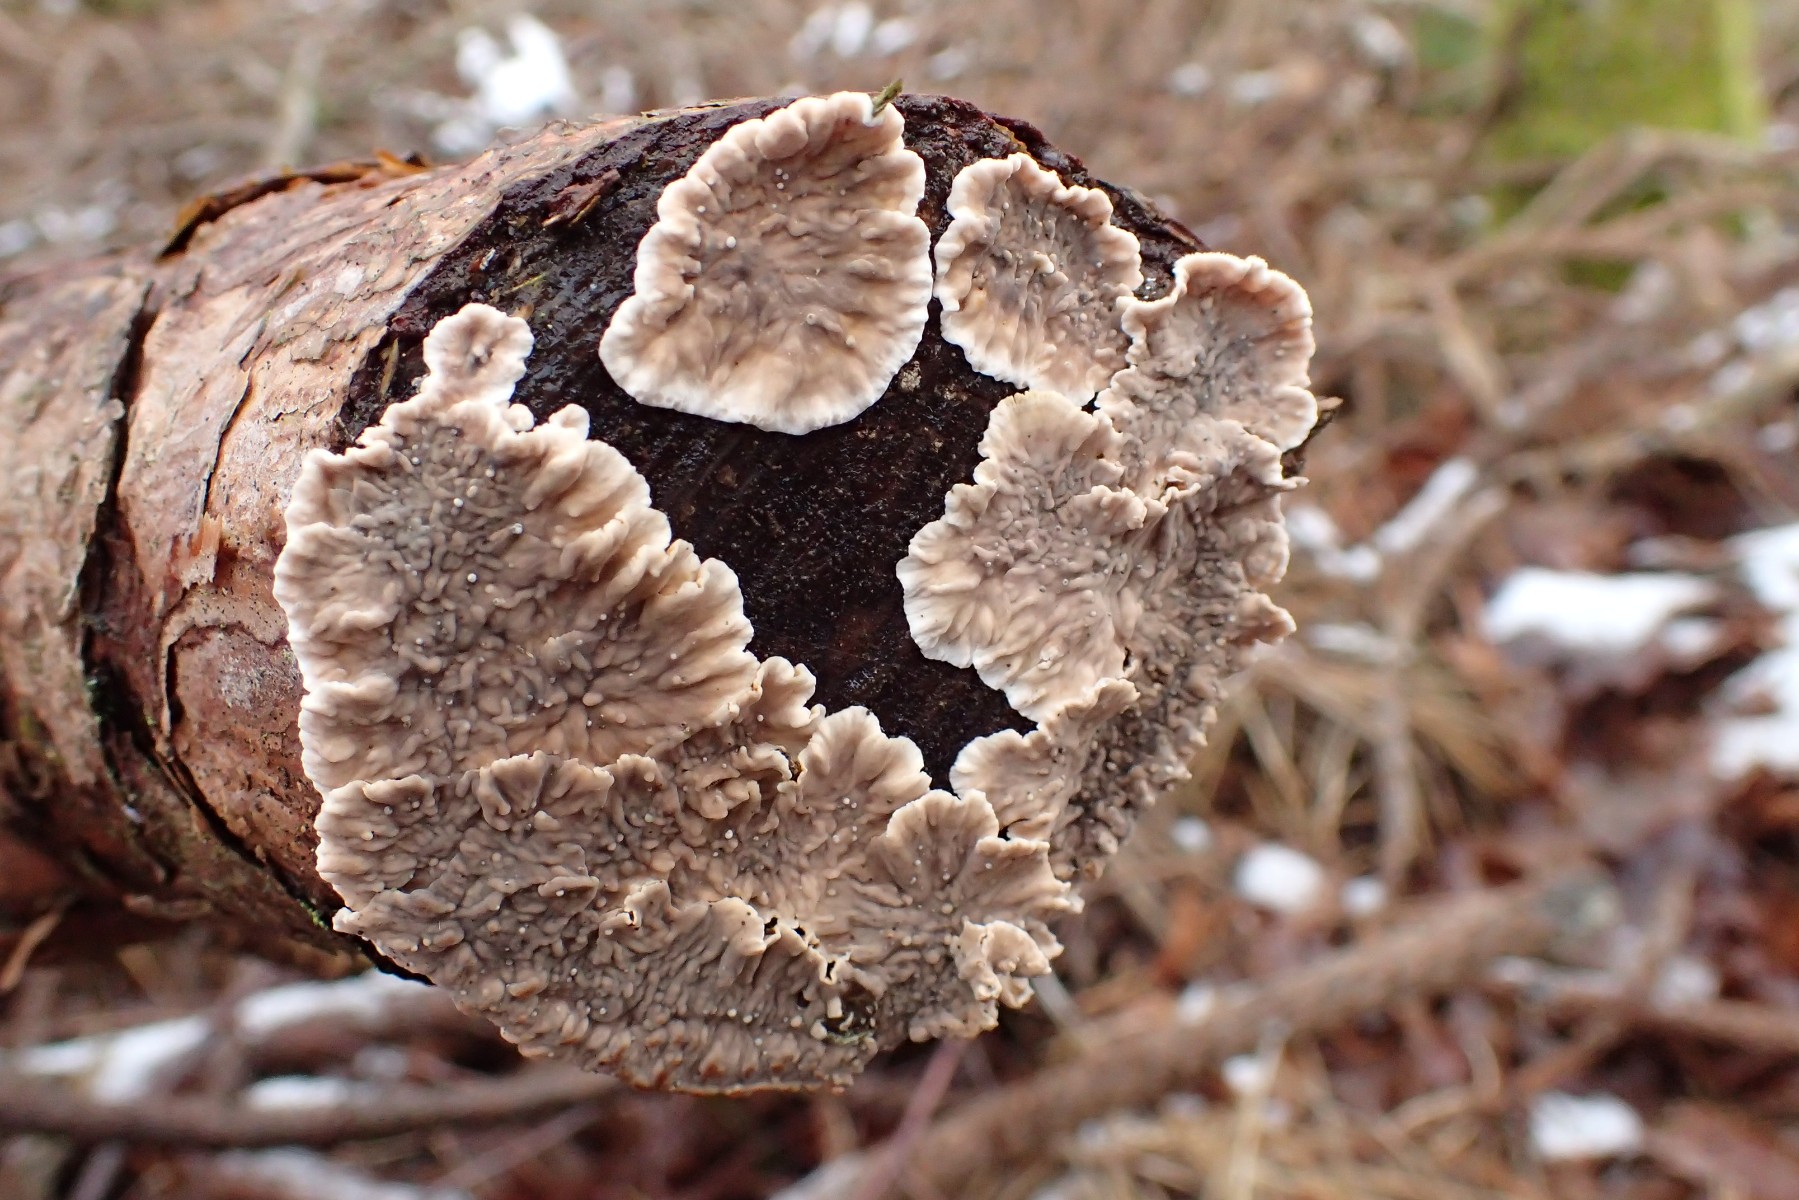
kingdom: Fungi
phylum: Basidiomycota
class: Agaricomycetes
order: Russulales
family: Stereaceae
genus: Stereum
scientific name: Stereum sanguinolentum
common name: blødende lædersvamp
